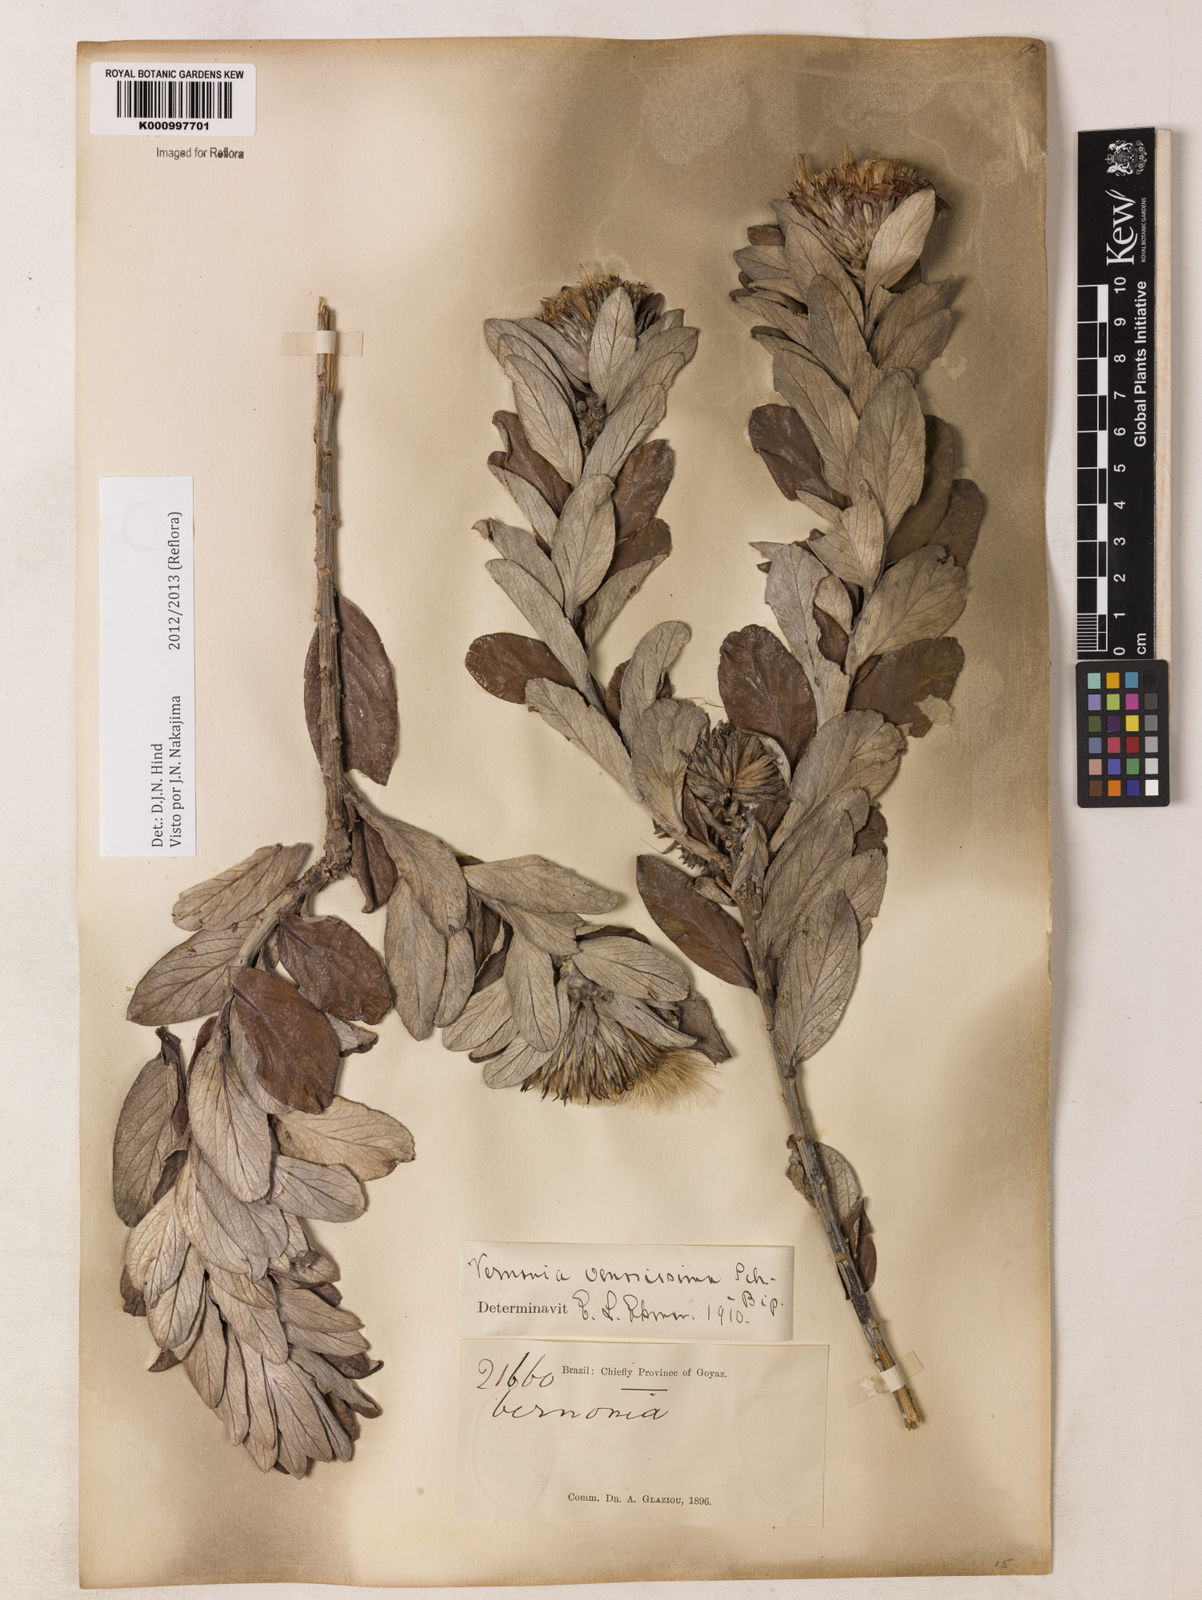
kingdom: Plantae
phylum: Tracheophyta
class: Magnoliopsida
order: Asterales
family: Asteraceae
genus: Lessingianthus
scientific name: Lessingianthus venosissimus
